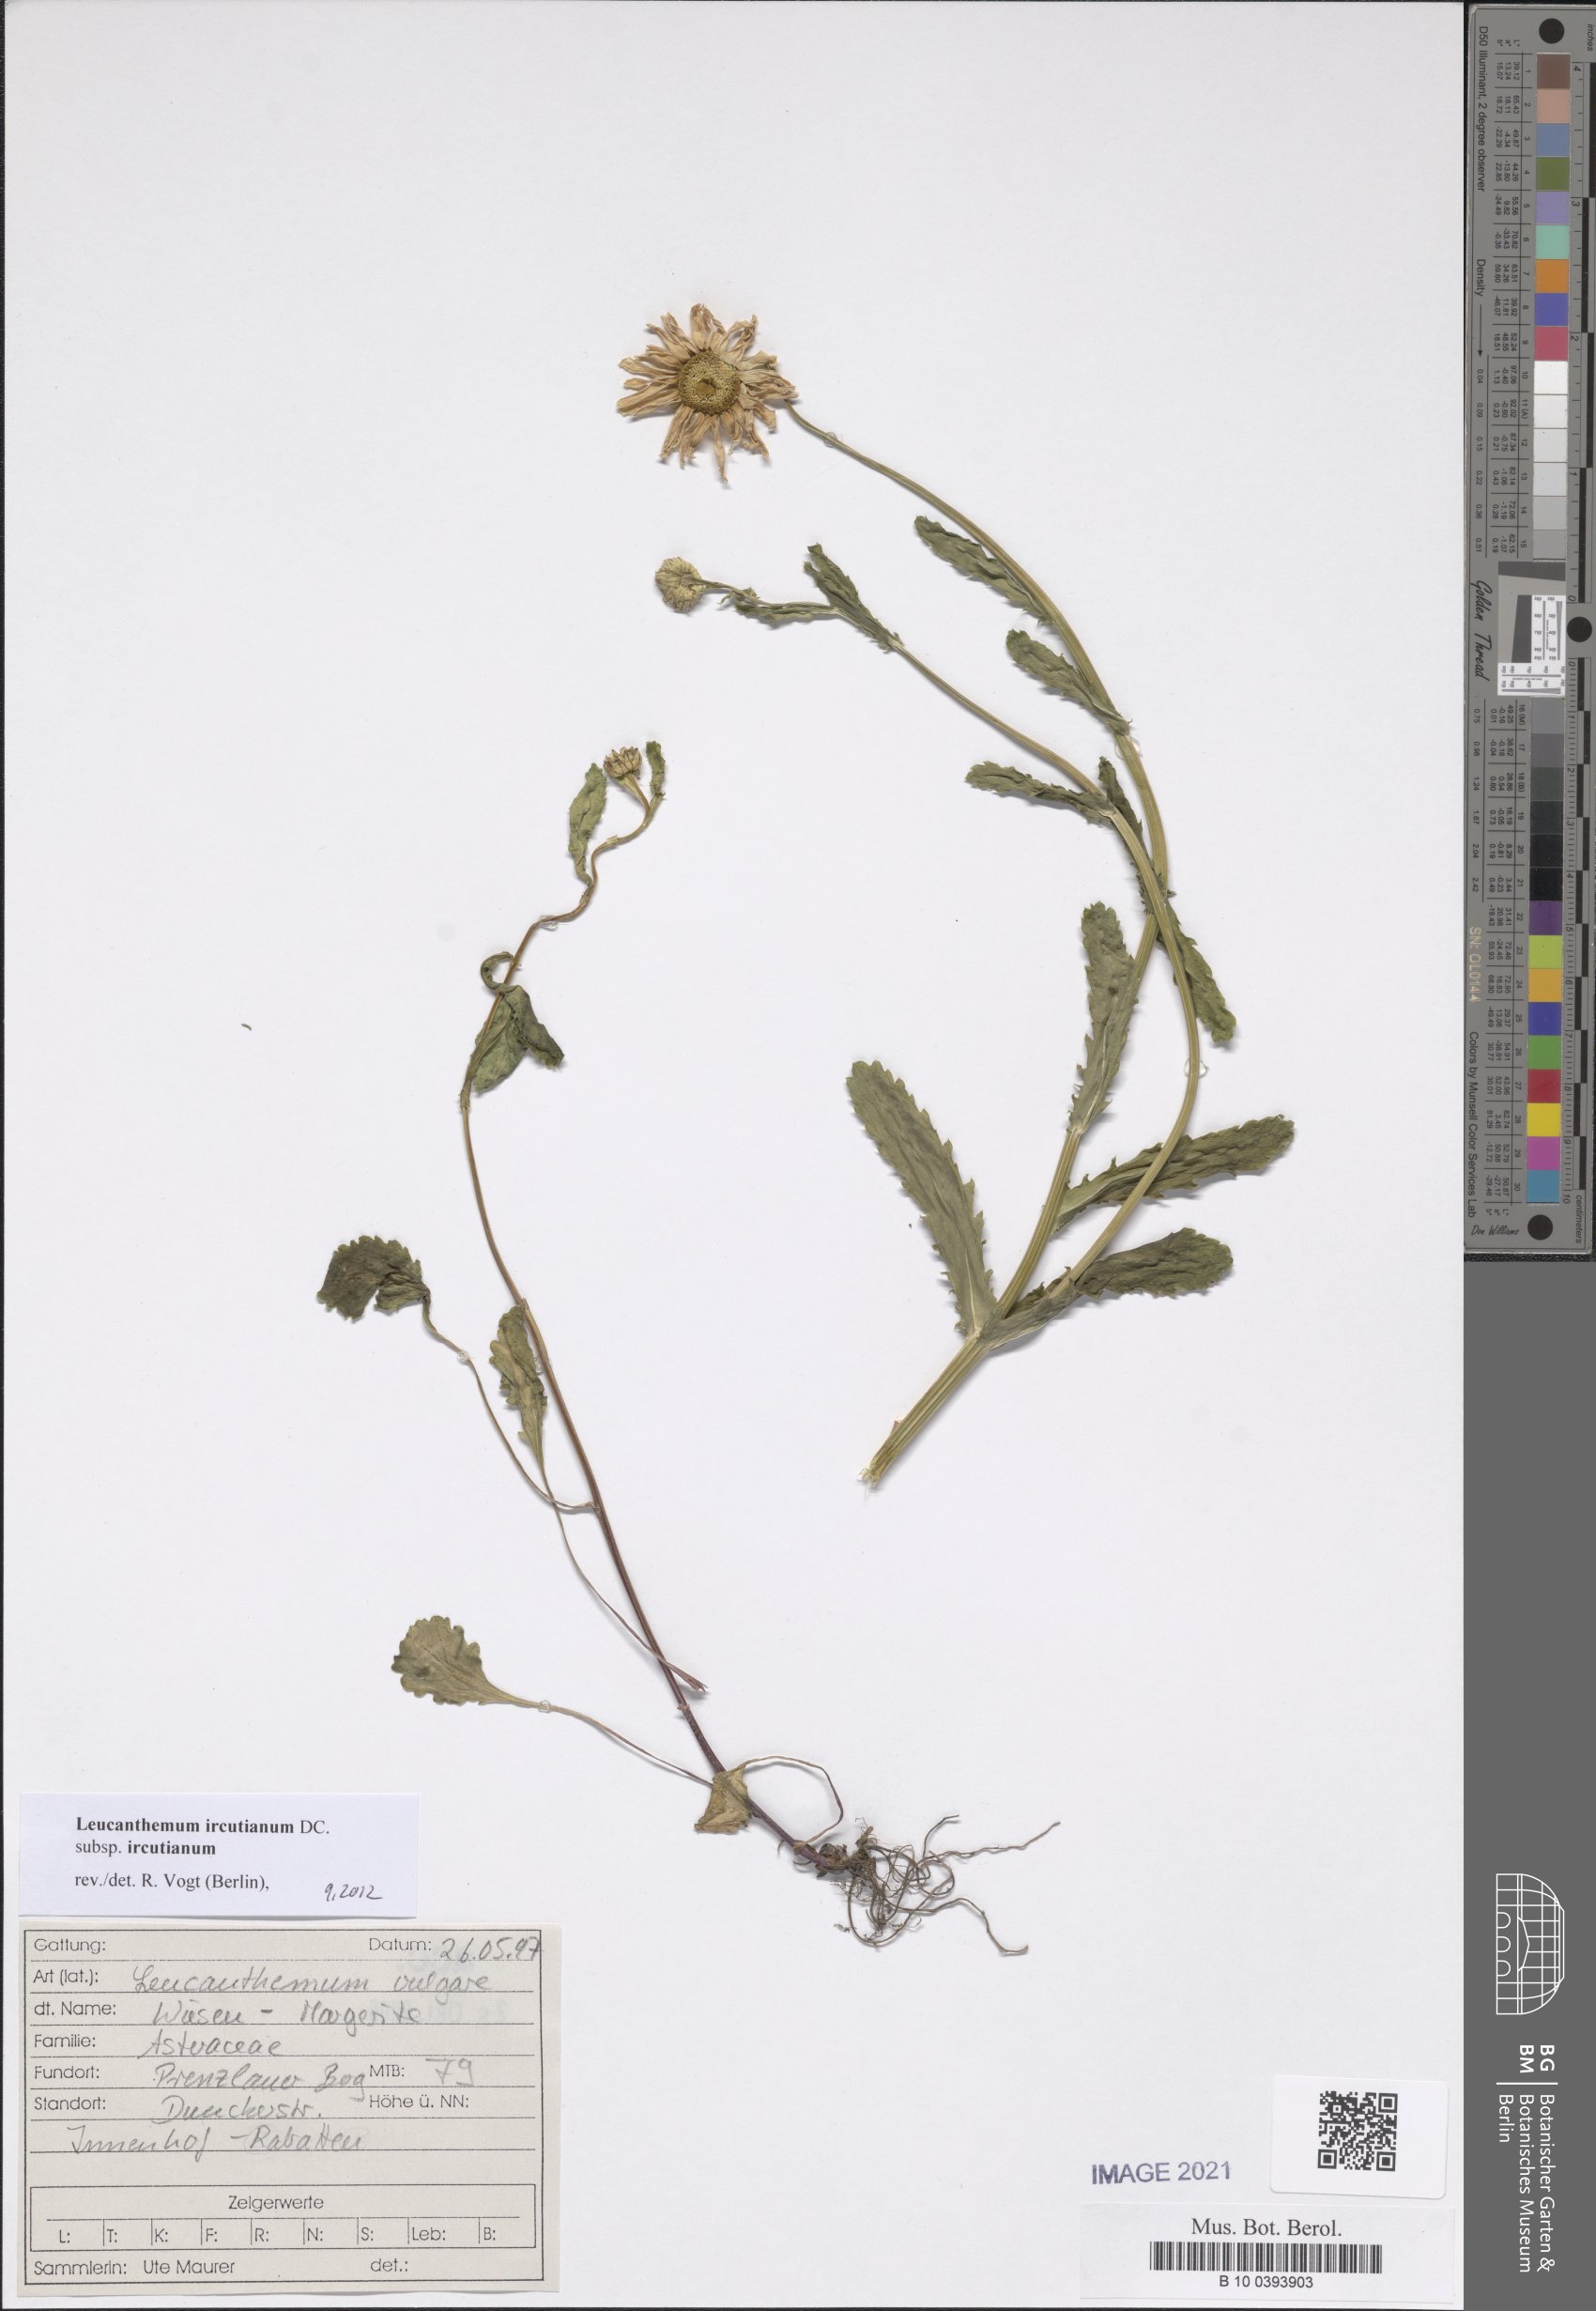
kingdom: Plantae
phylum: Tracheophyta
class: Magnoliopsida
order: Asterales
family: Asteraceae
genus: Leucanthemum
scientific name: Leucanthemum ircutianum
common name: Daisy
